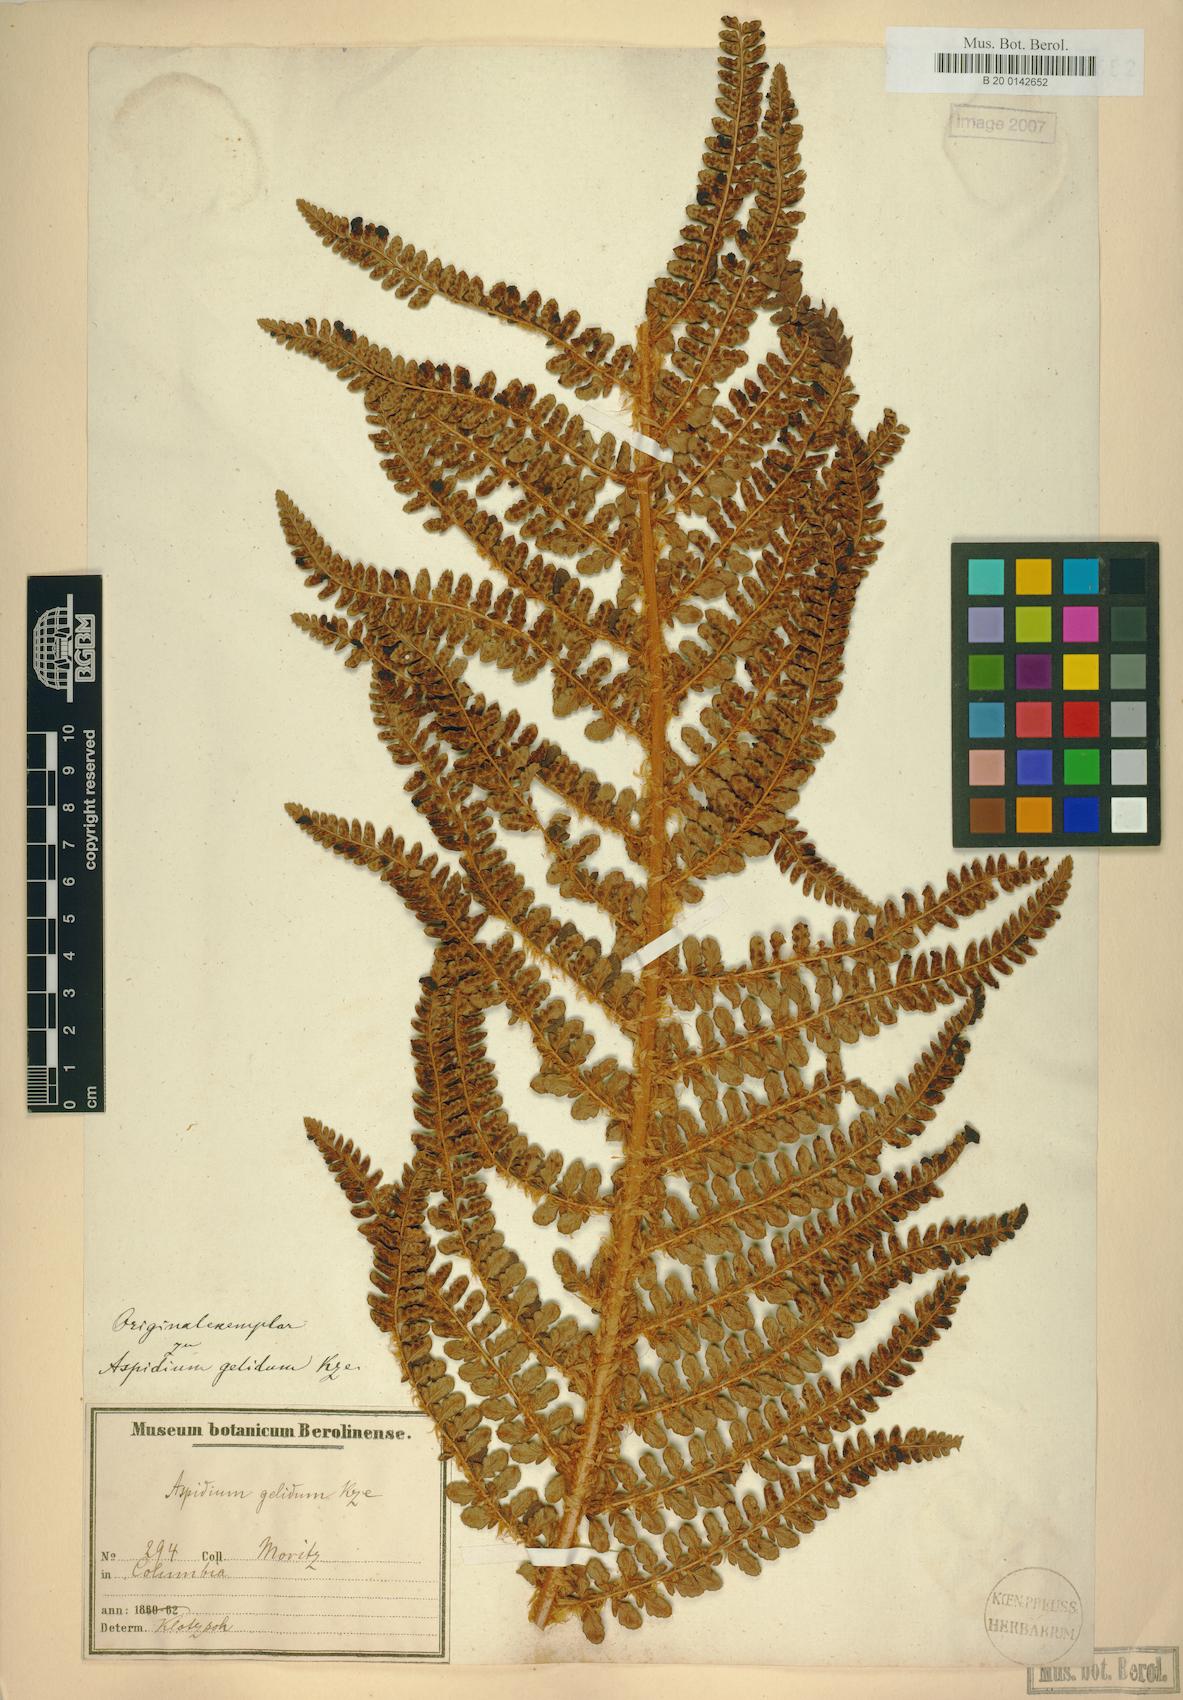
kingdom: Plantae
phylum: Tracheophyta
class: Polypodiopsida
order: Polypodiales
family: Dryopteridaceae
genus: Polystichum
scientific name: Polystichum pycnolepis
